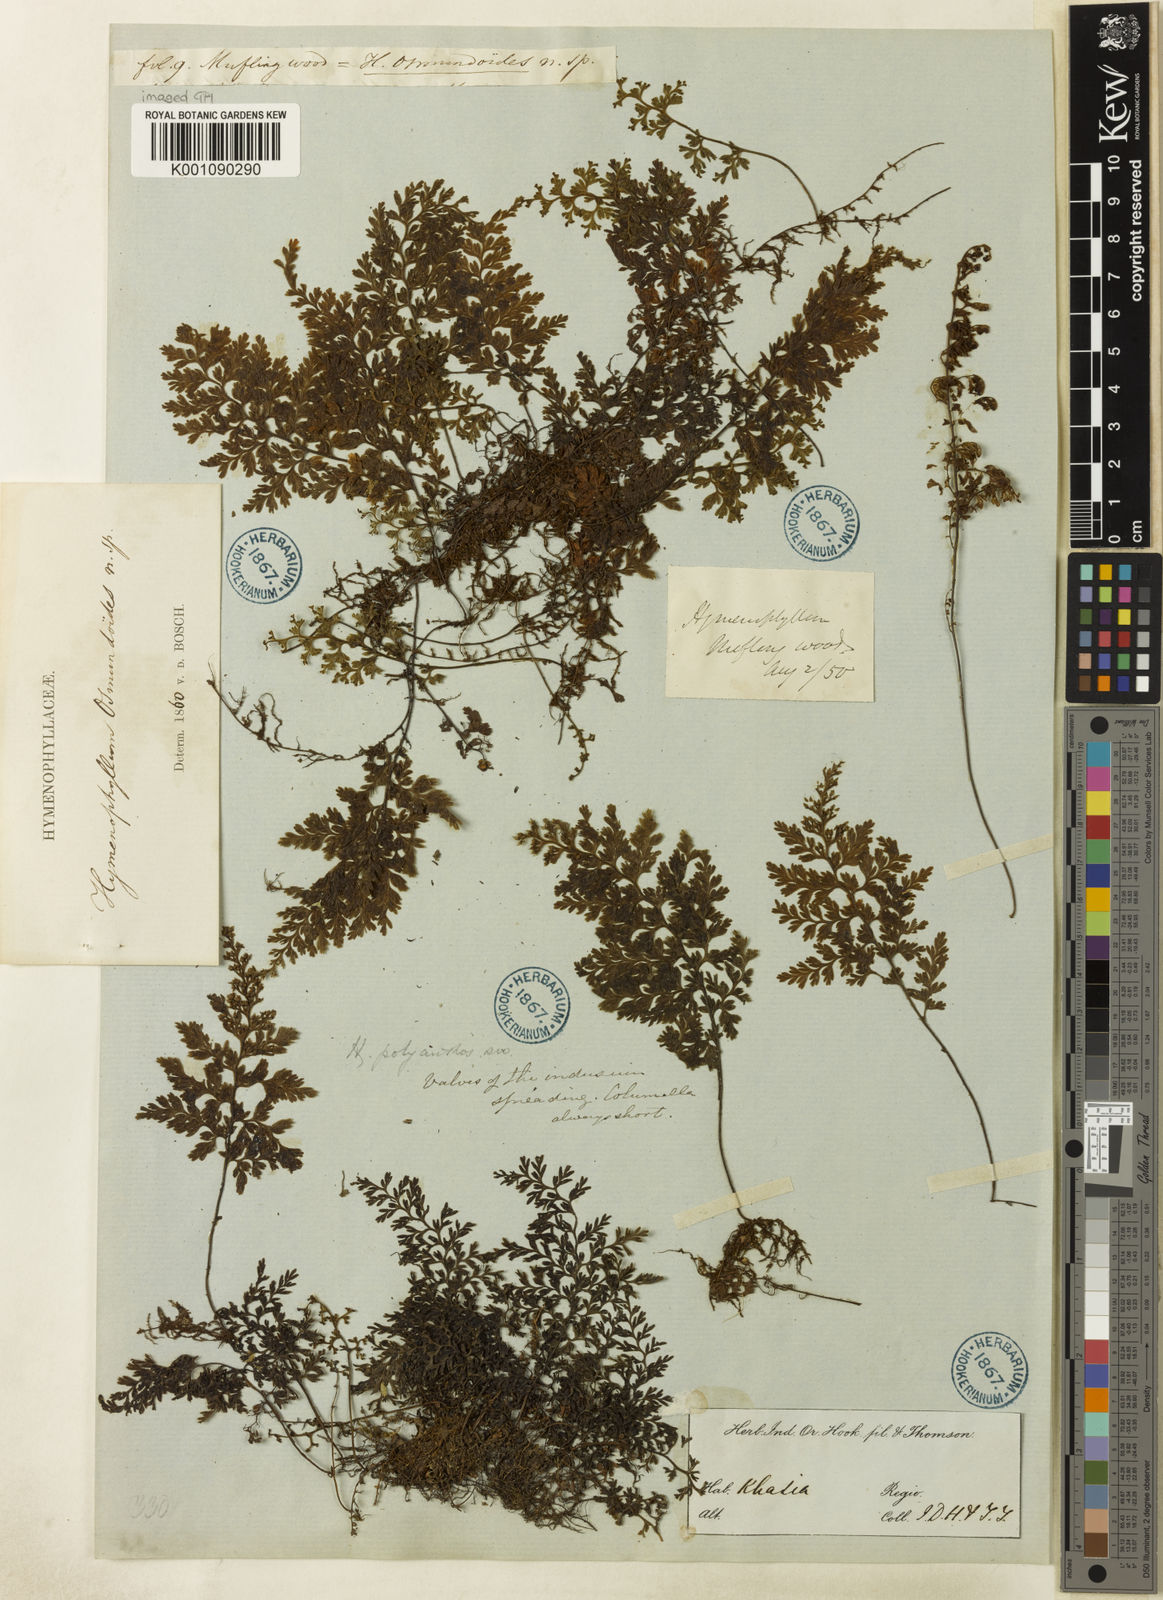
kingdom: Plantae
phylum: Tracheophyta
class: Polypodiopsida
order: Hymenophyllales
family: Hymenophyllaceae
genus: Hymenophyllum
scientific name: Hymenophyllum polyanthos
